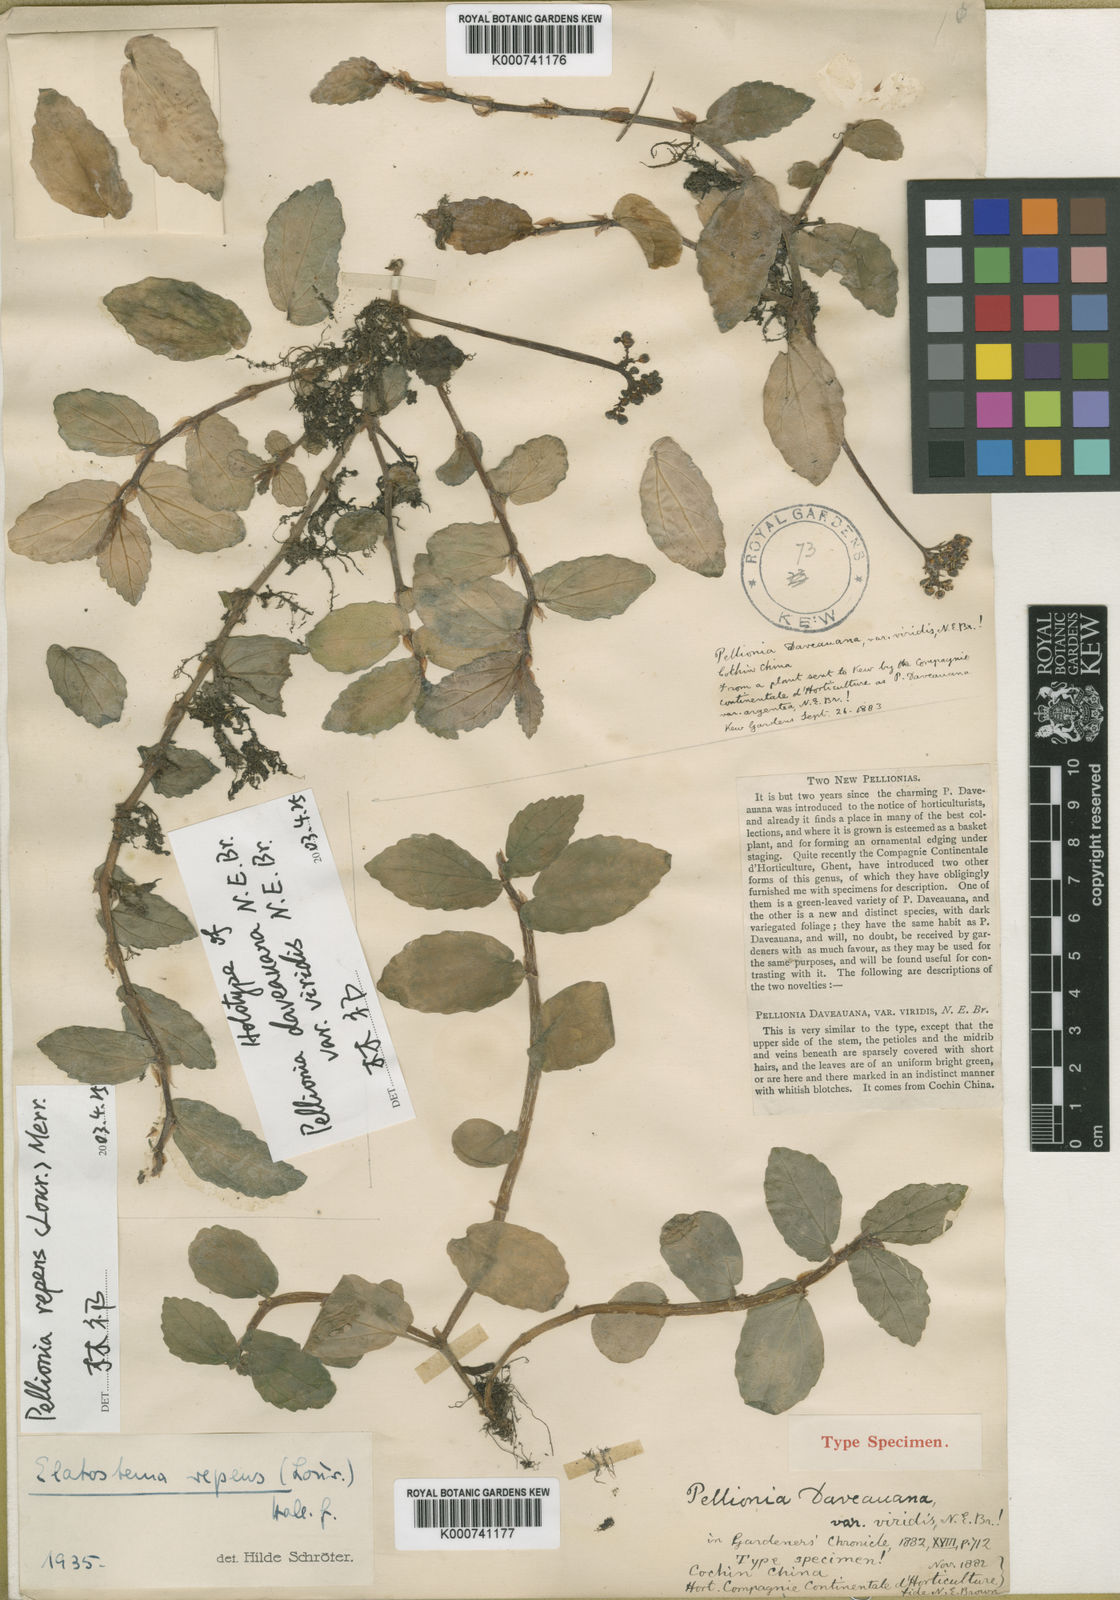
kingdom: Plantae
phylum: Tracheophyta
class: Magnoliopsida
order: Rosales
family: Urticaceae
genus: Procris
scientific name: Procris repens
